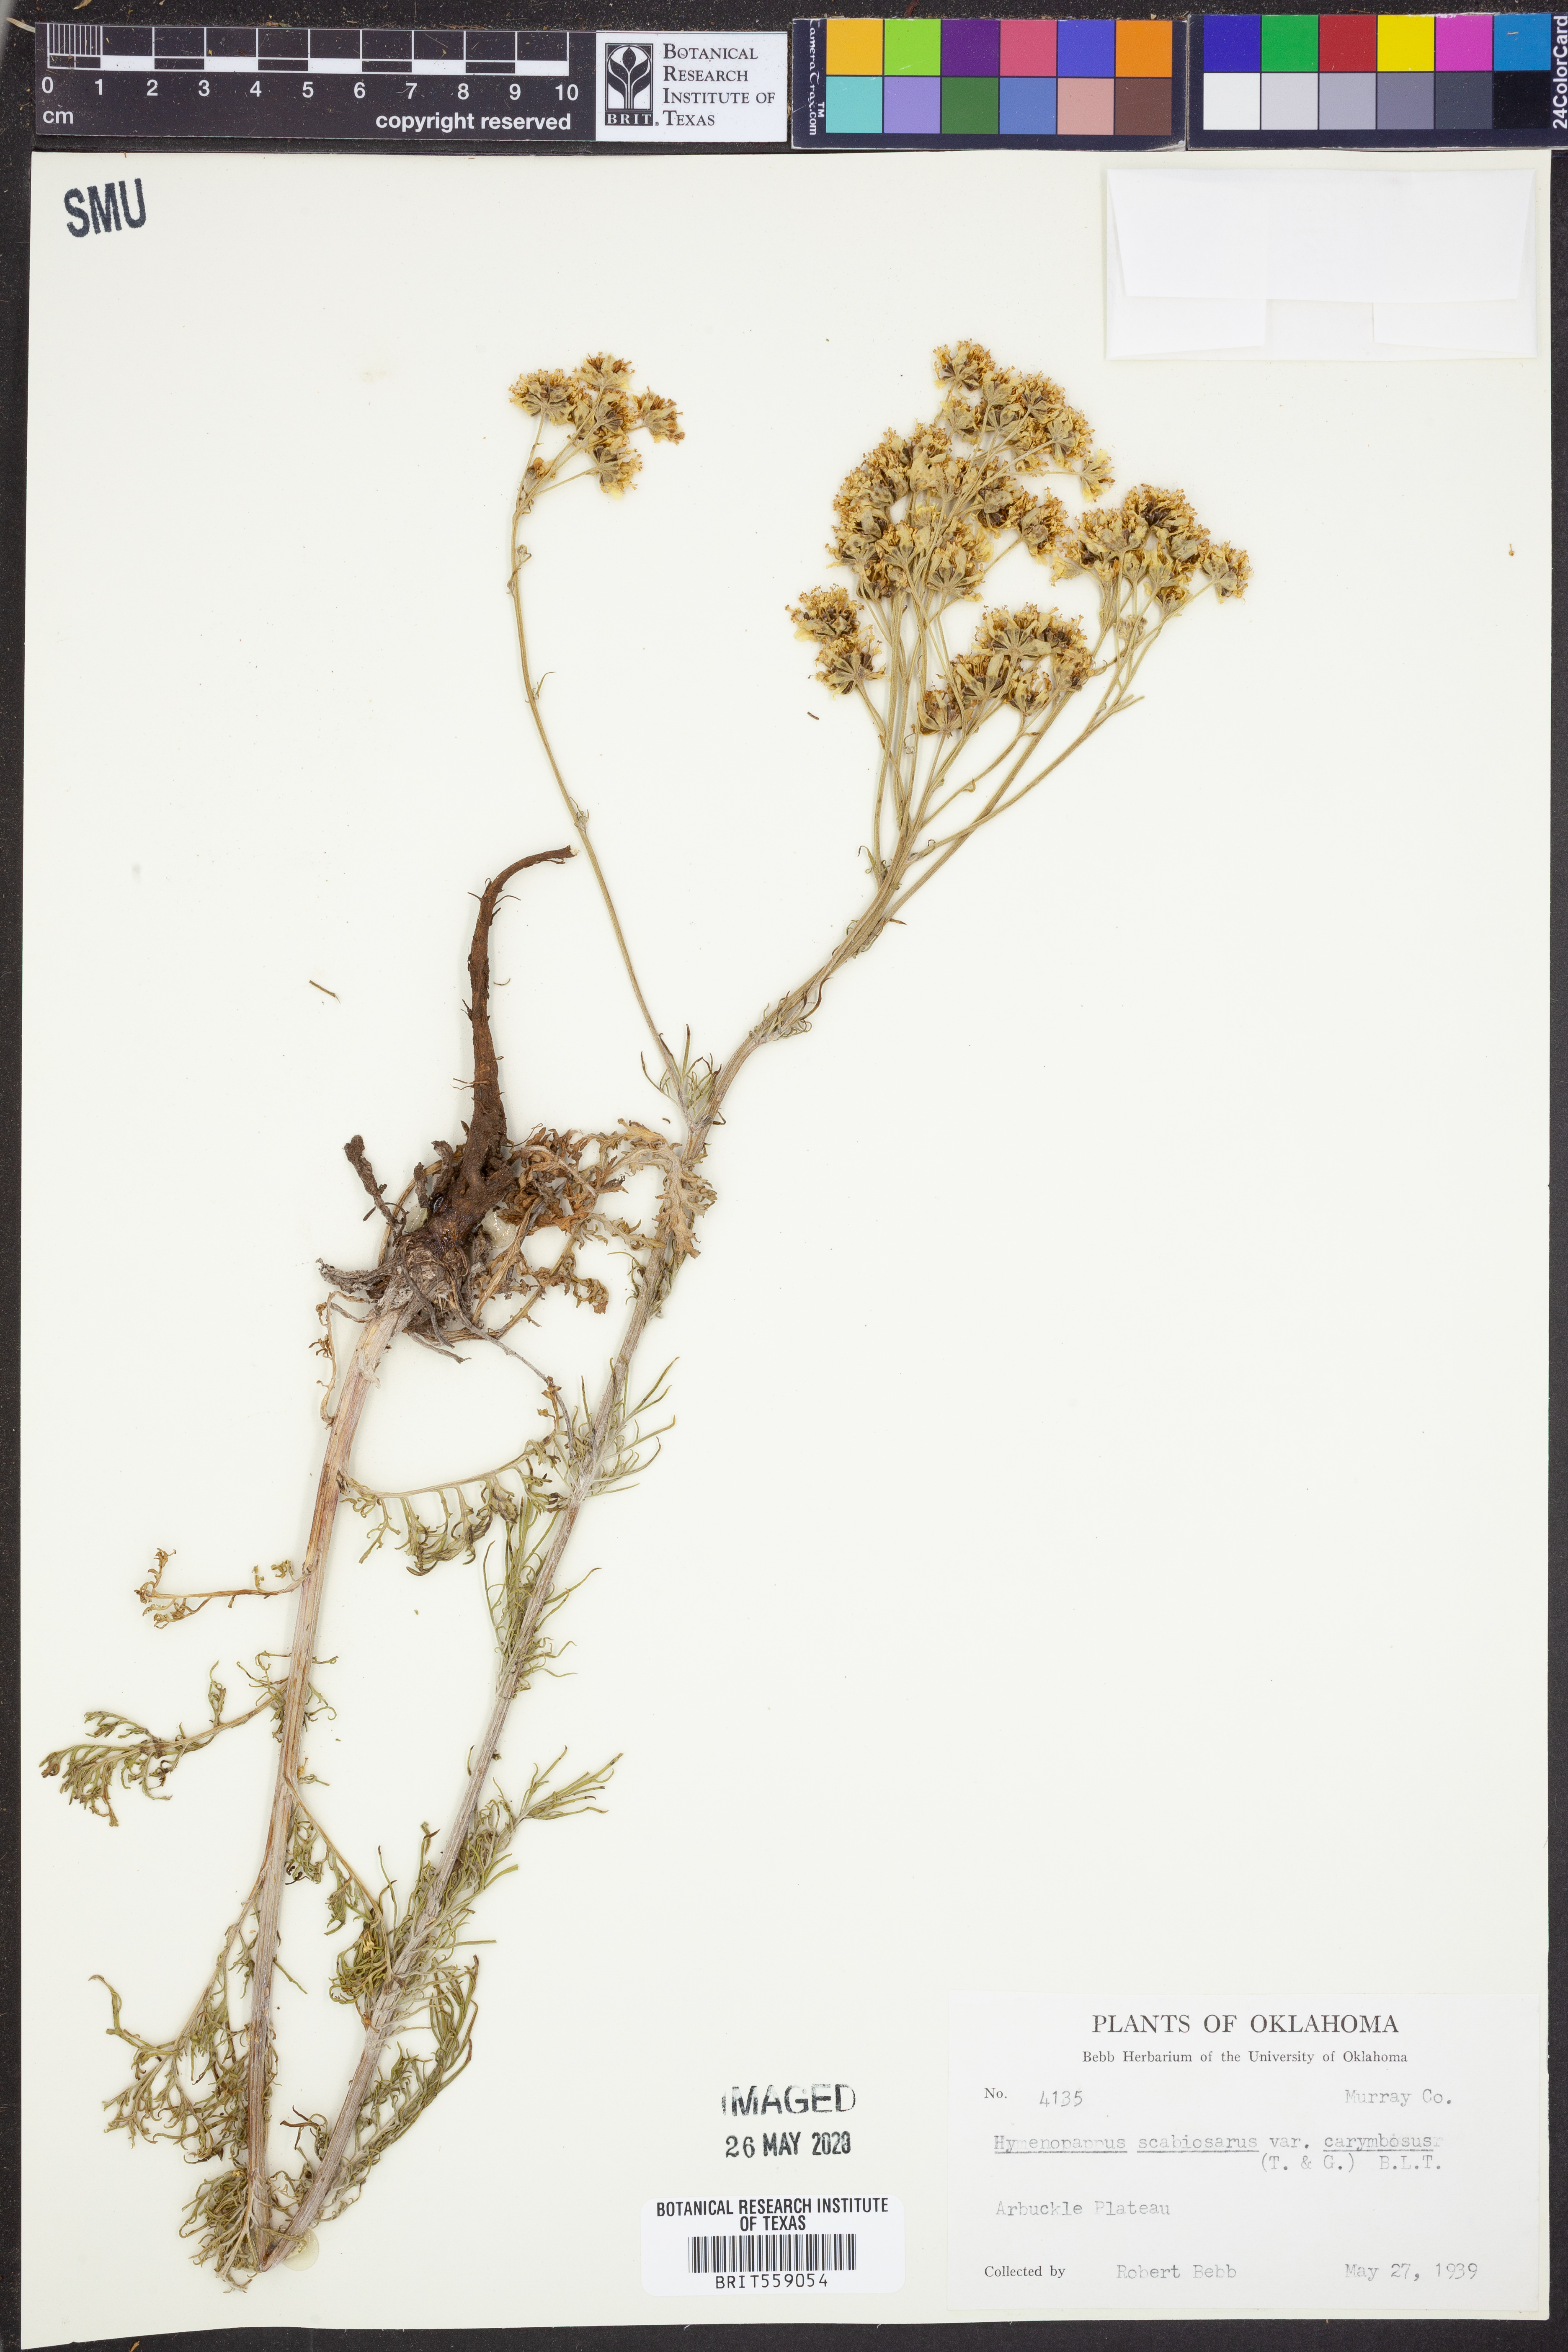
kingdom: Plantae
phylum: Tracheophyta
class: Magnoliopsida
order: Asterales
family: Asteraceae
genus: Hymenopappus
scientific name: Hymenopappus scabiosaeus
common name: Carolina woollywhite
